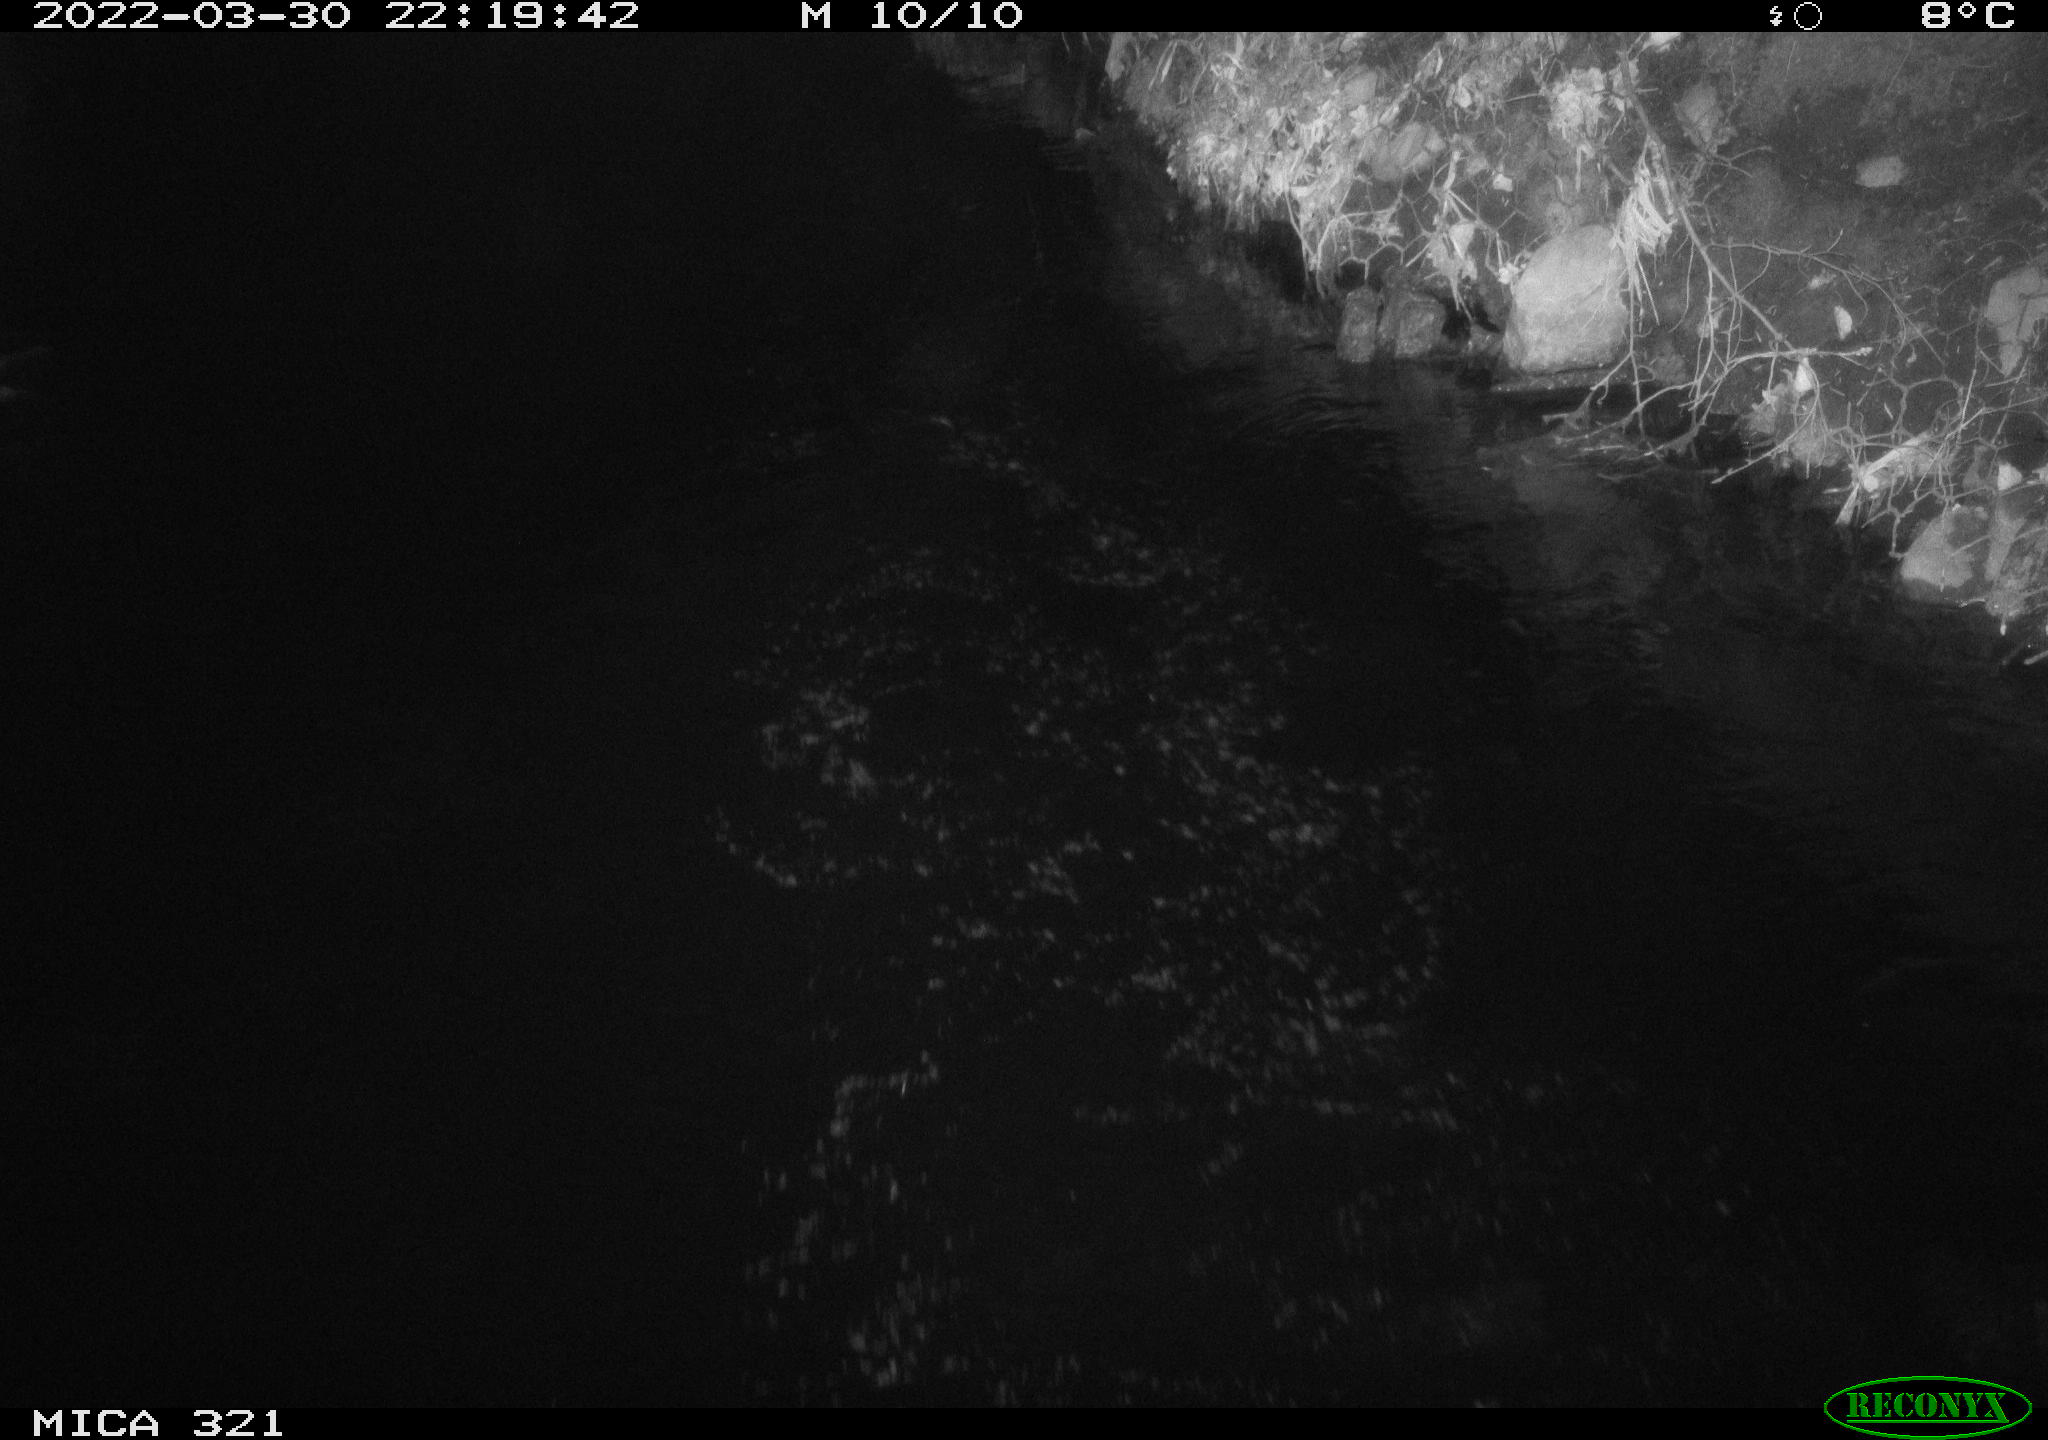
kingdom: Animalia
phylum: Chordata
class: Aves
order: Anseriformes
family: Anatidae
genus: Anas
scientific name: Anas platyrhynchos
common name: Mallard
